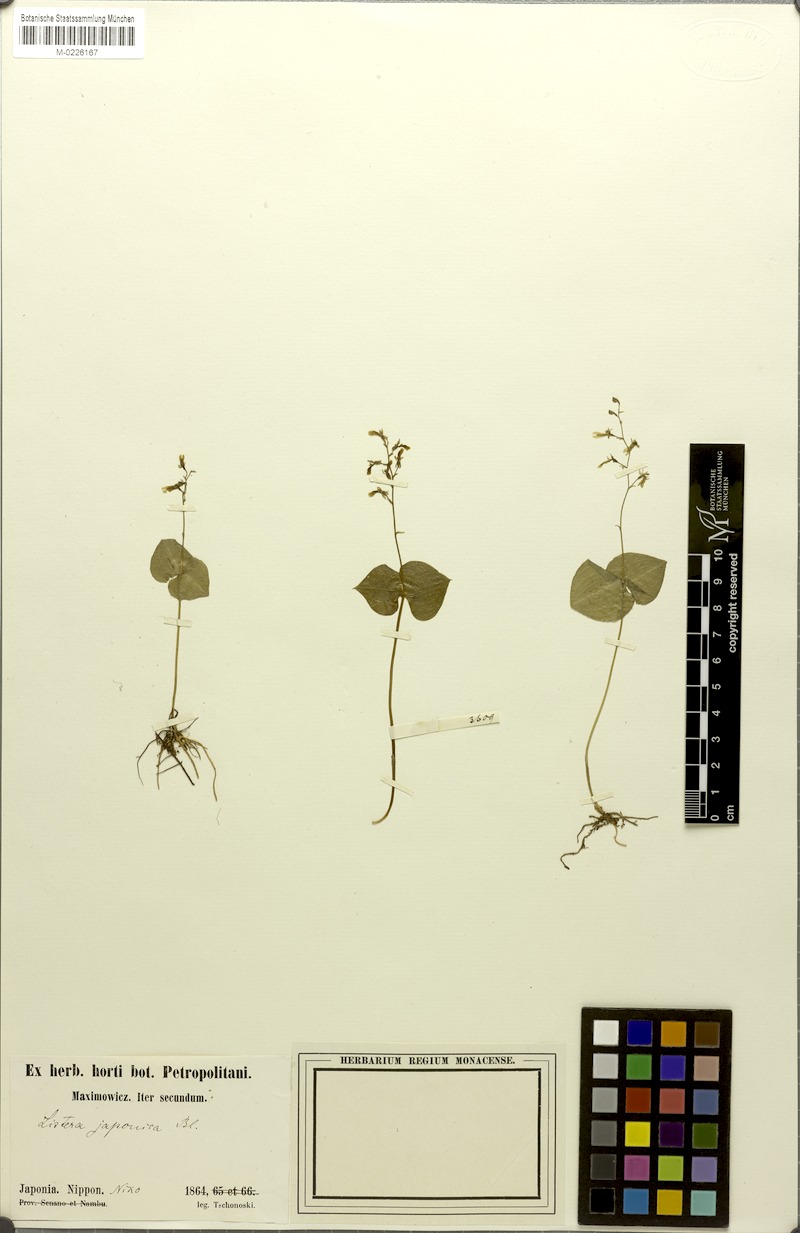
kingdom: Plantae
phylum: Tracheophyta
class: Liliopsida
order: Asparagales
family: Orchidaceae
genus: Neottia
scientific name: Neottia japonica
